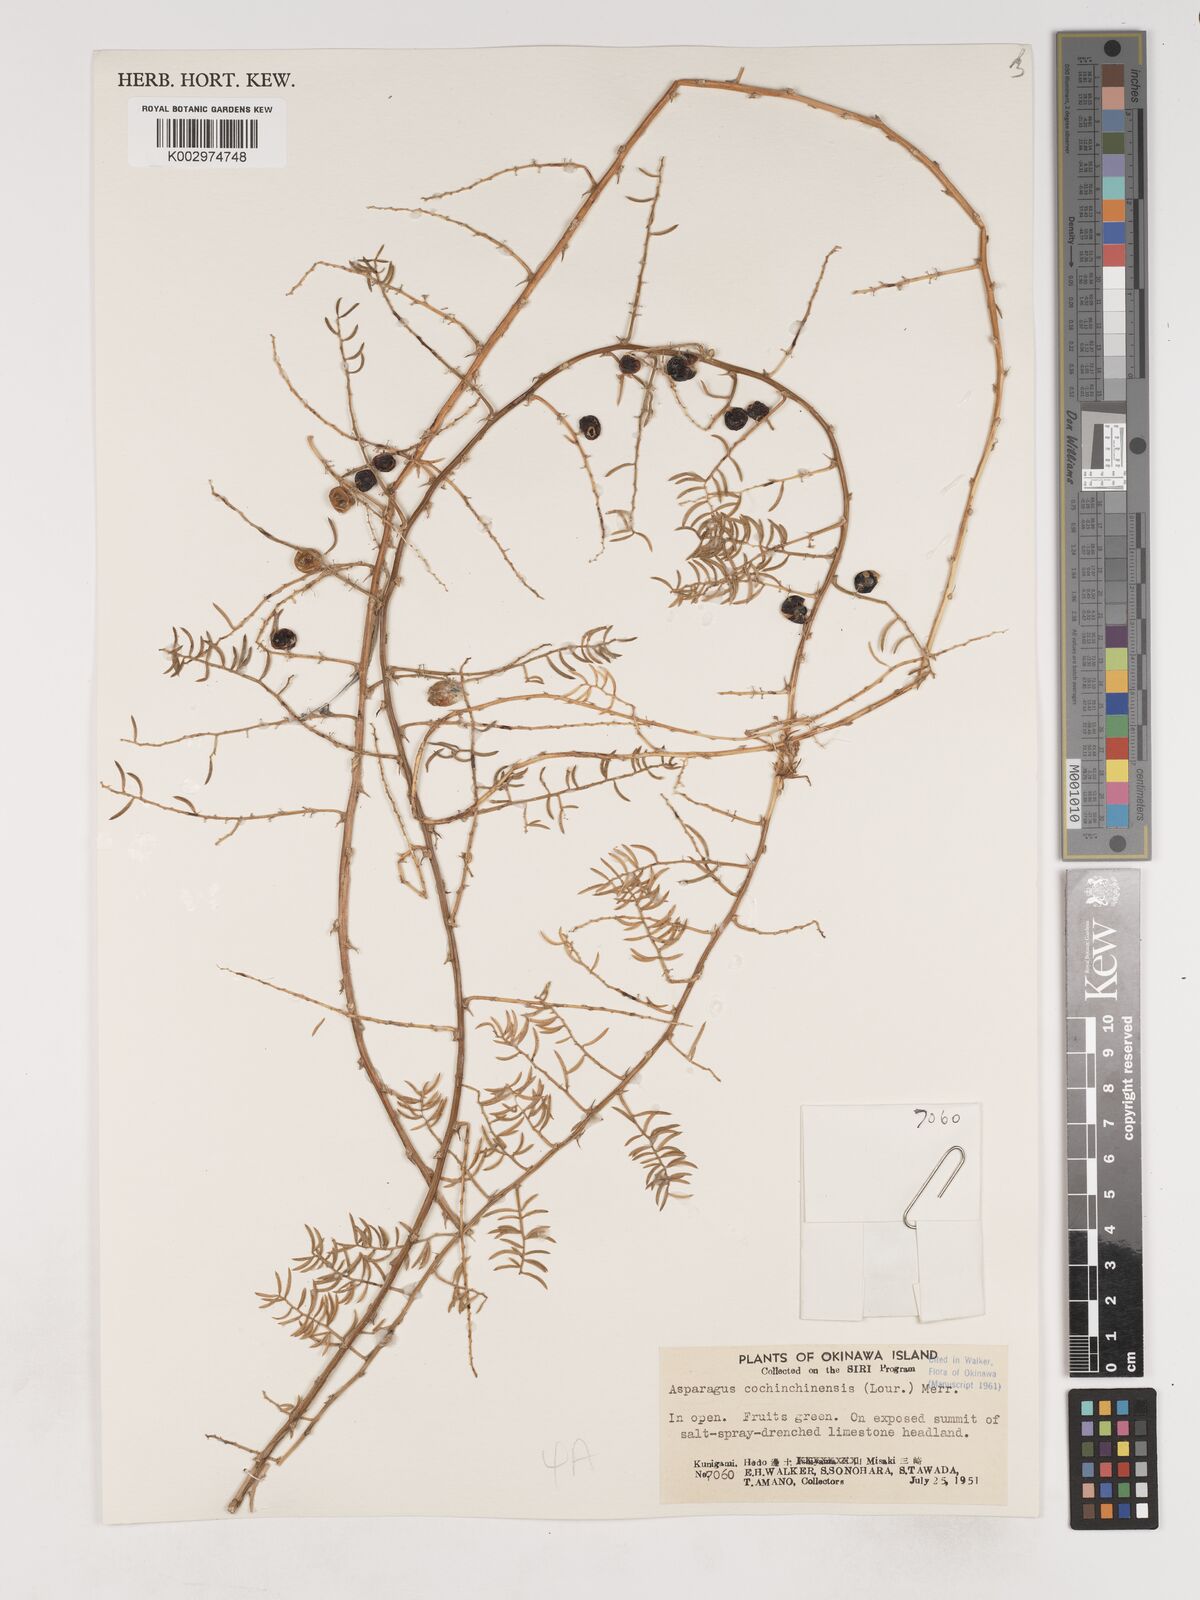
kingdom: Plantae
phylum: Tracheophyta
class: Liliopsida
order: Asparagales
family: Asparagaceae
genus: Asparagus
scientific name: Asparagus cochinchinensis
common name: Chinese asparagus
